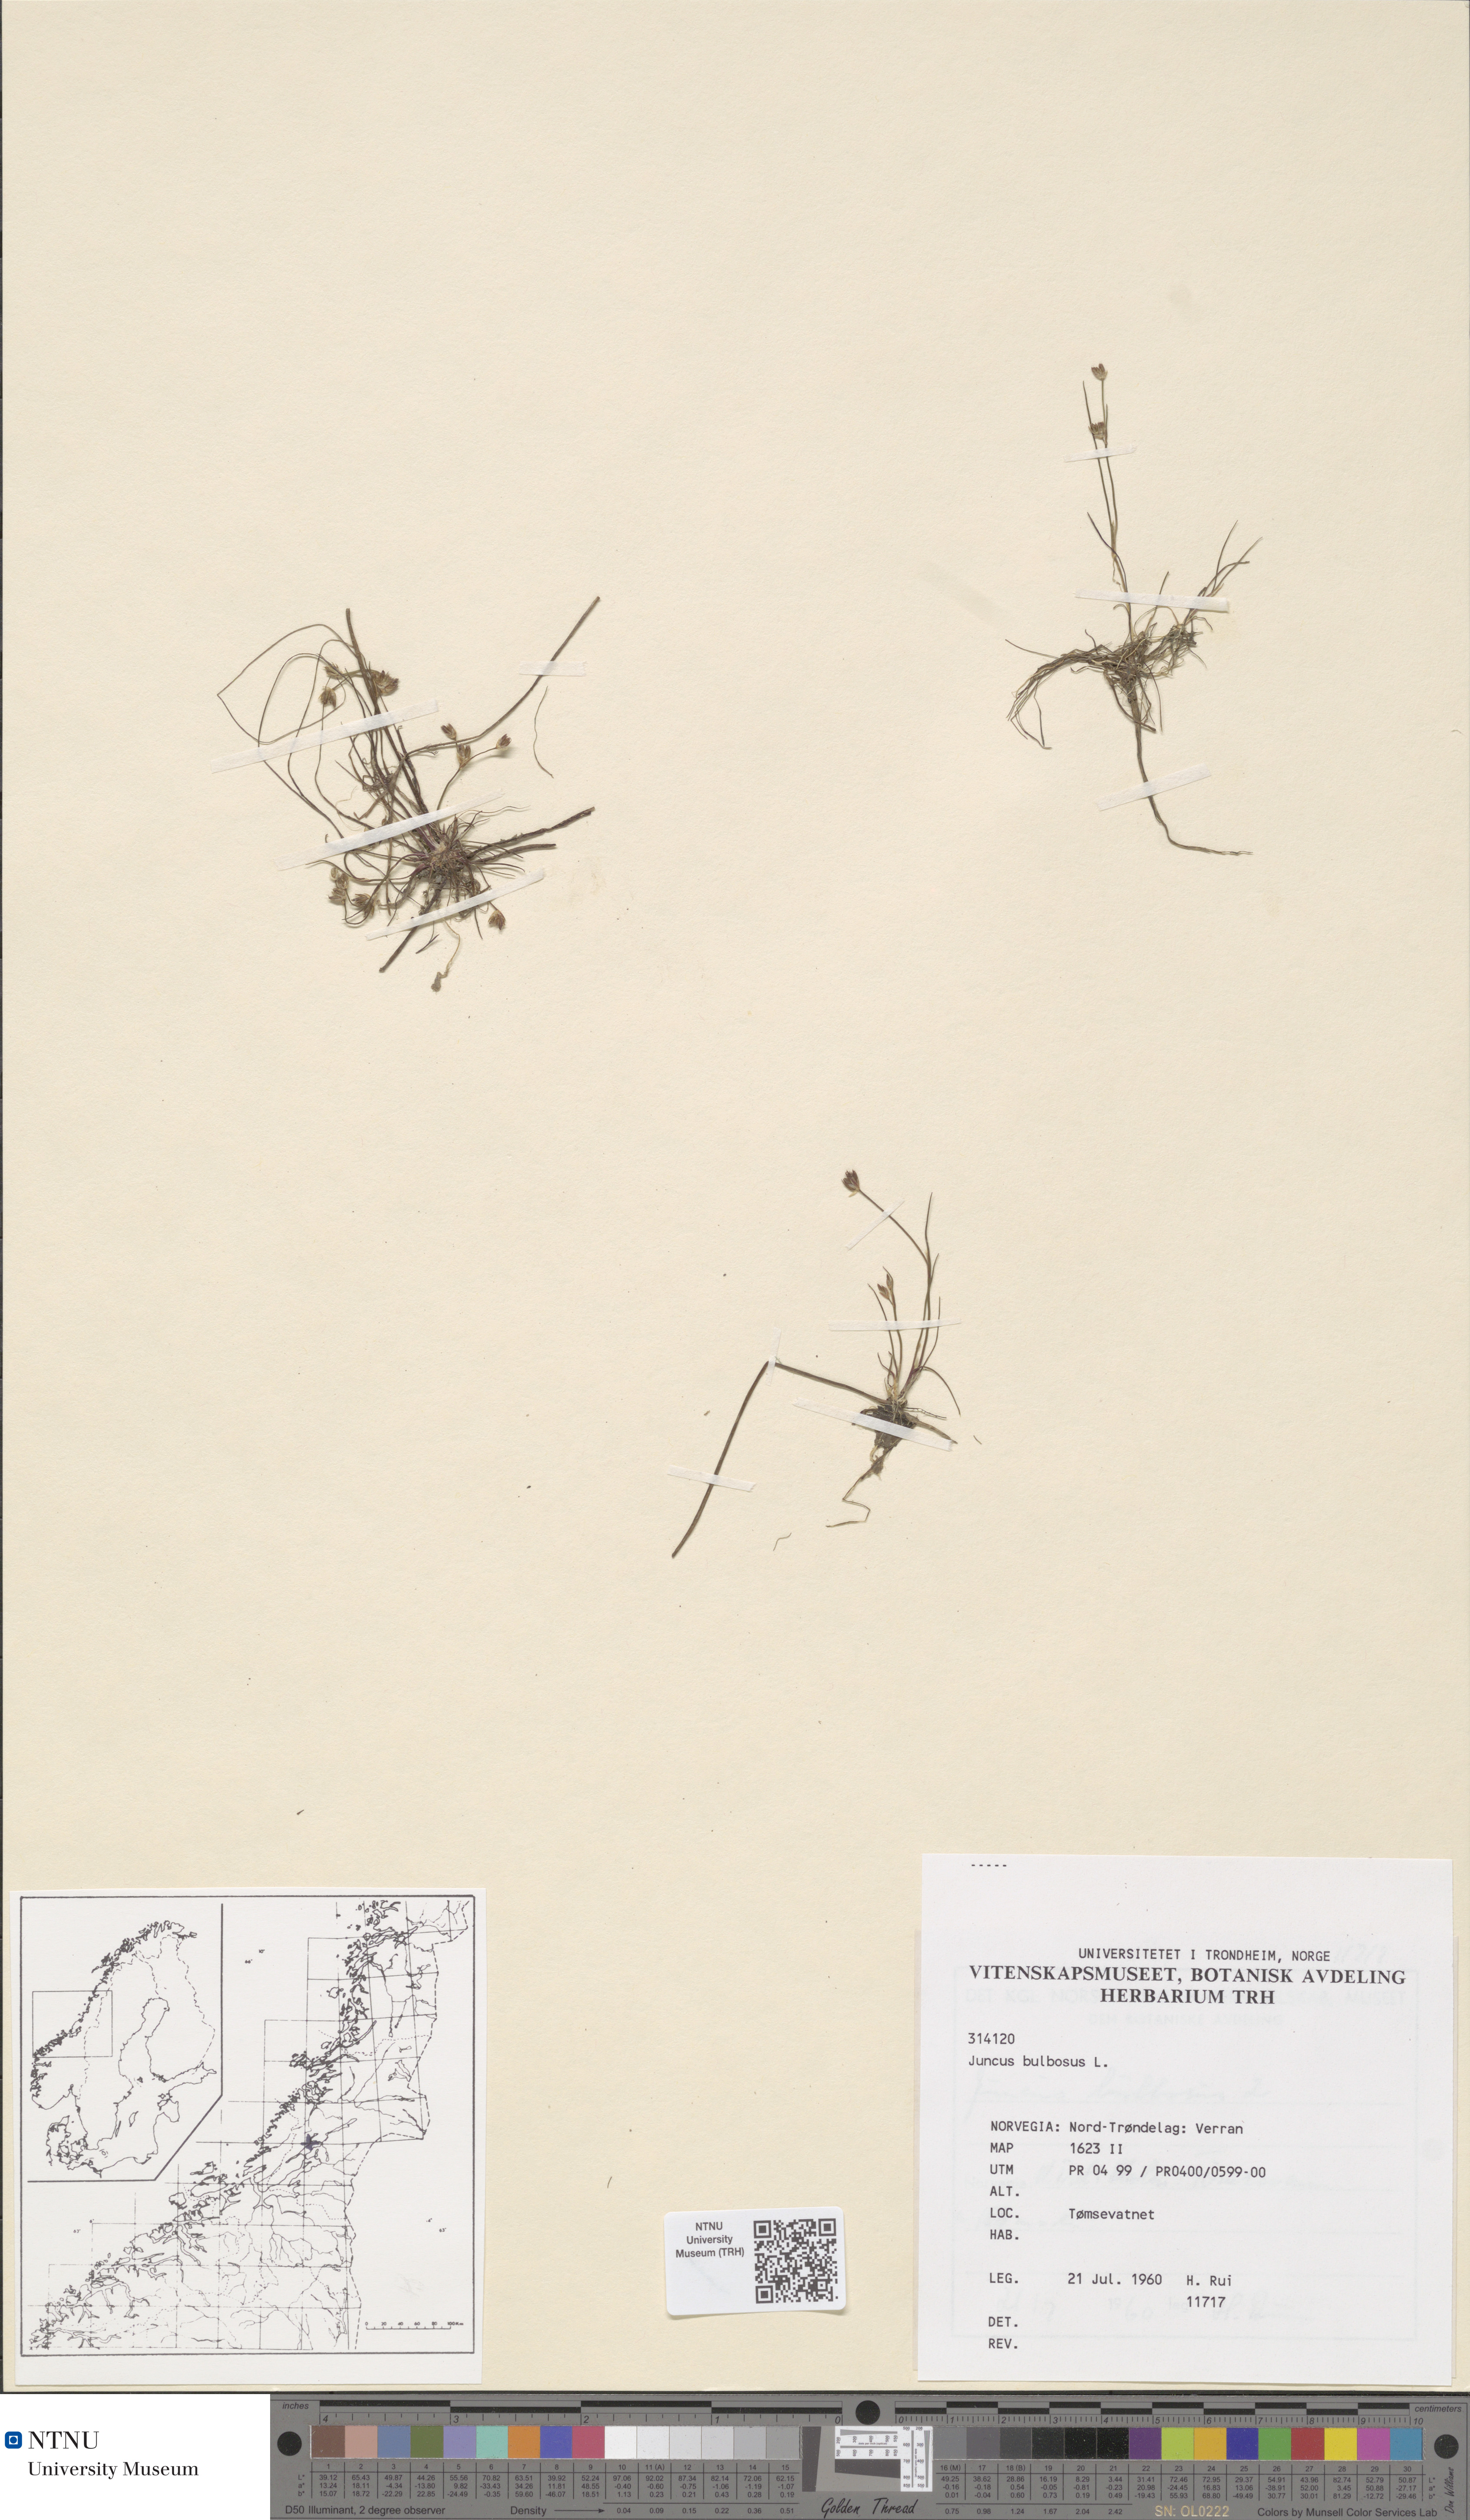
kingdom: Plantae
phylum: Tracheophyta
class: Liliopsida
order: Poales
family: Juncaceae
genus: Juncus
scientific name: Juncus bulbosus
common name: Bulbous rush
